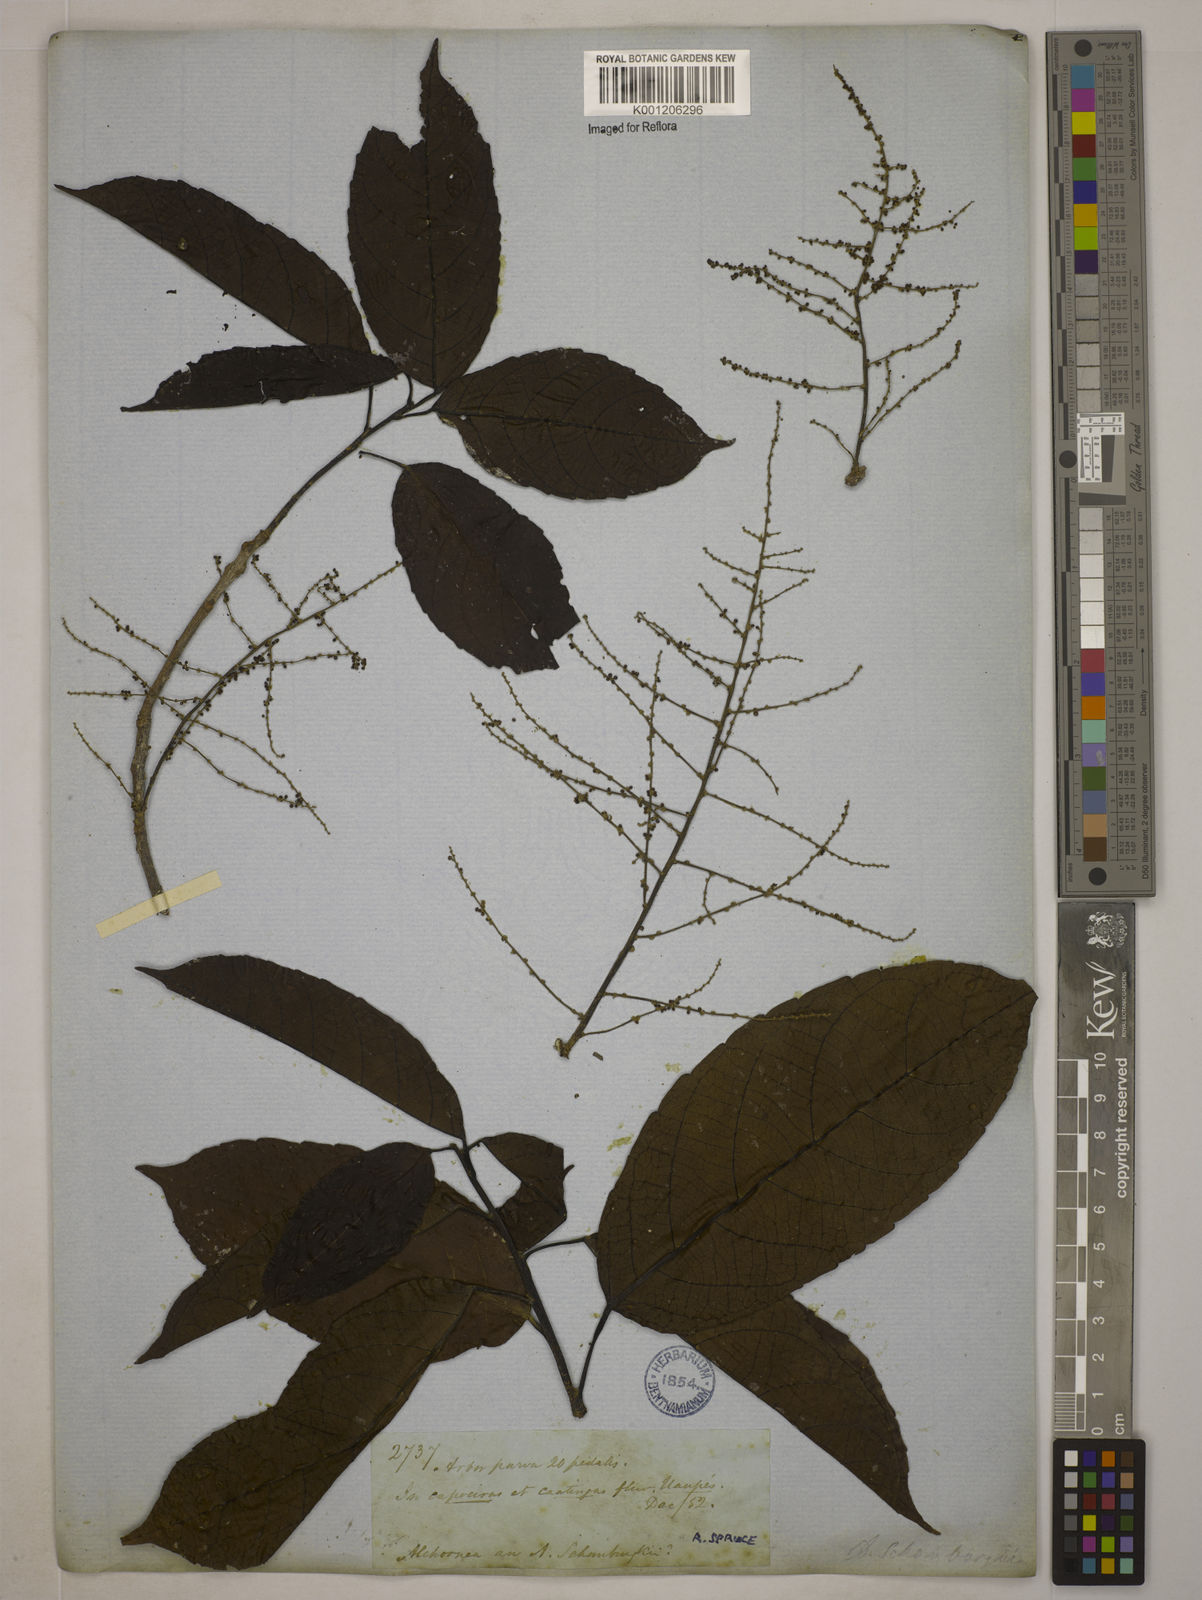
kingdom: Plantae
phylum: Tracheophyta
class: Magnoliopsida
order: Malpighiales
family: Euphorbiaceae
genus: Alchornea
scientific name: Alchornea discolor
